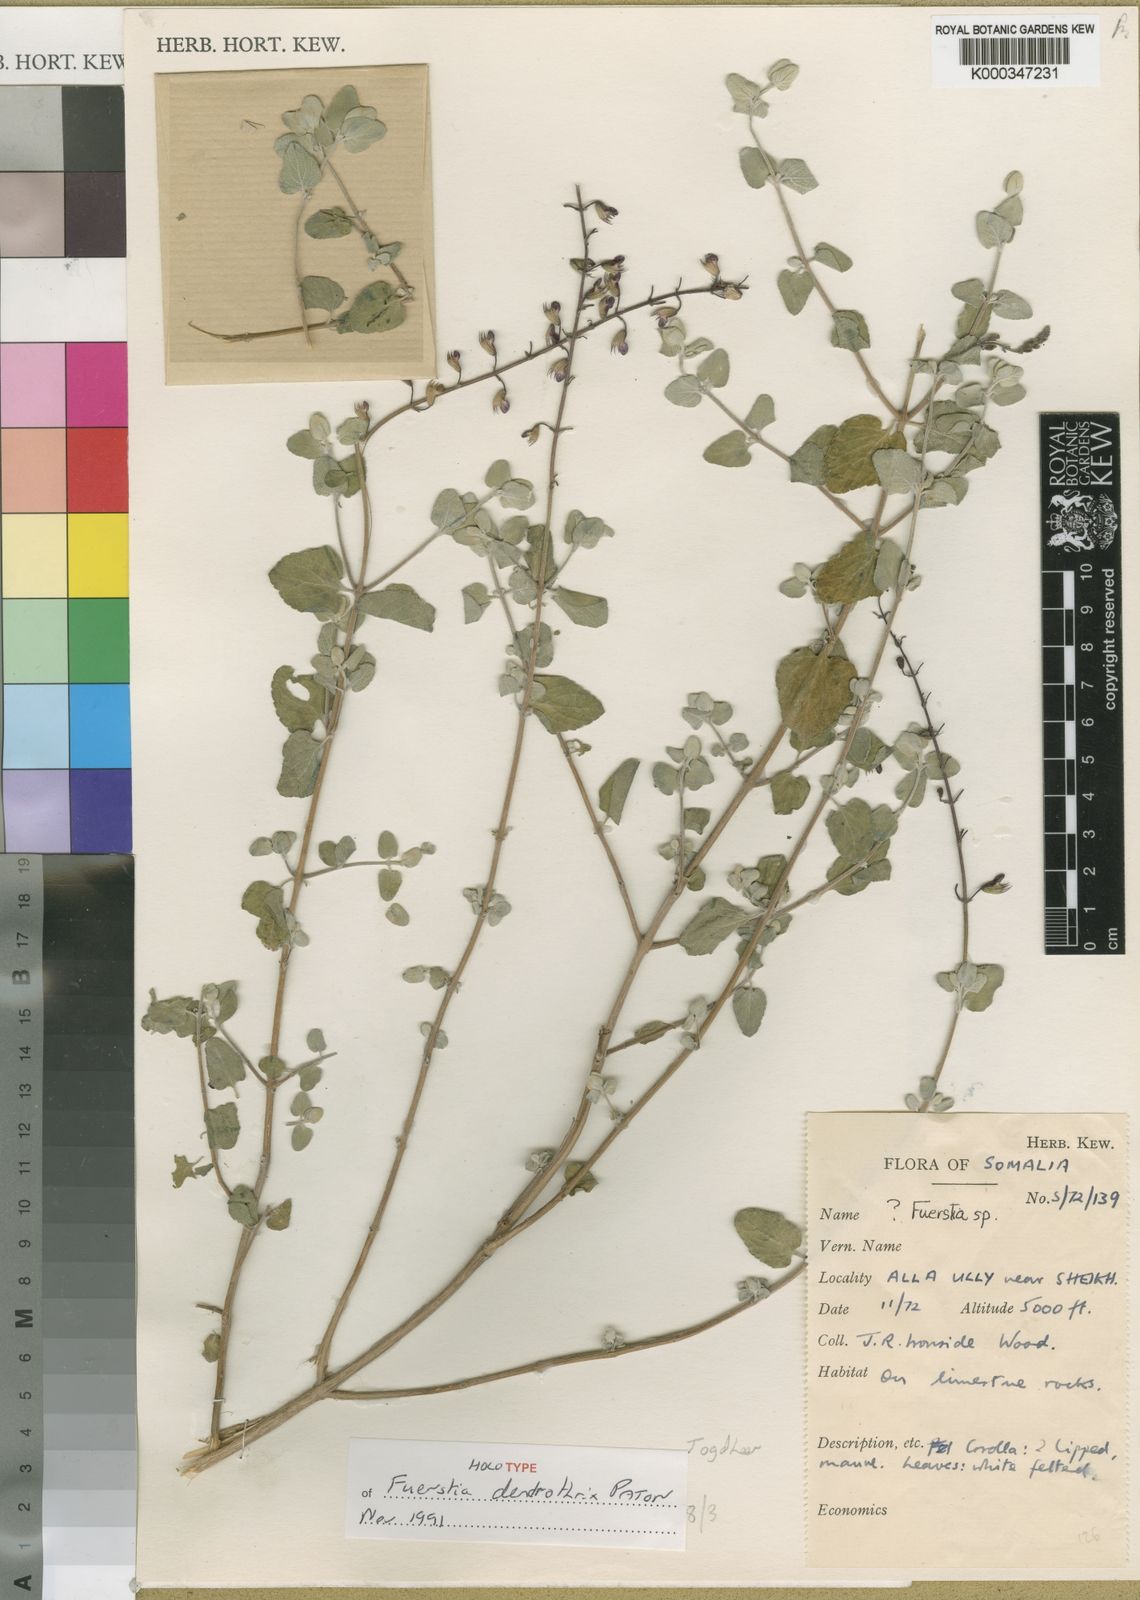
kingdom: Plantae
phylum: Tracheophyta
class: Magnoliopsida
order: Lamiales
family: Lamiaceae
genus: Fuerstia
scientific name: Fuerstia dendrothrix
